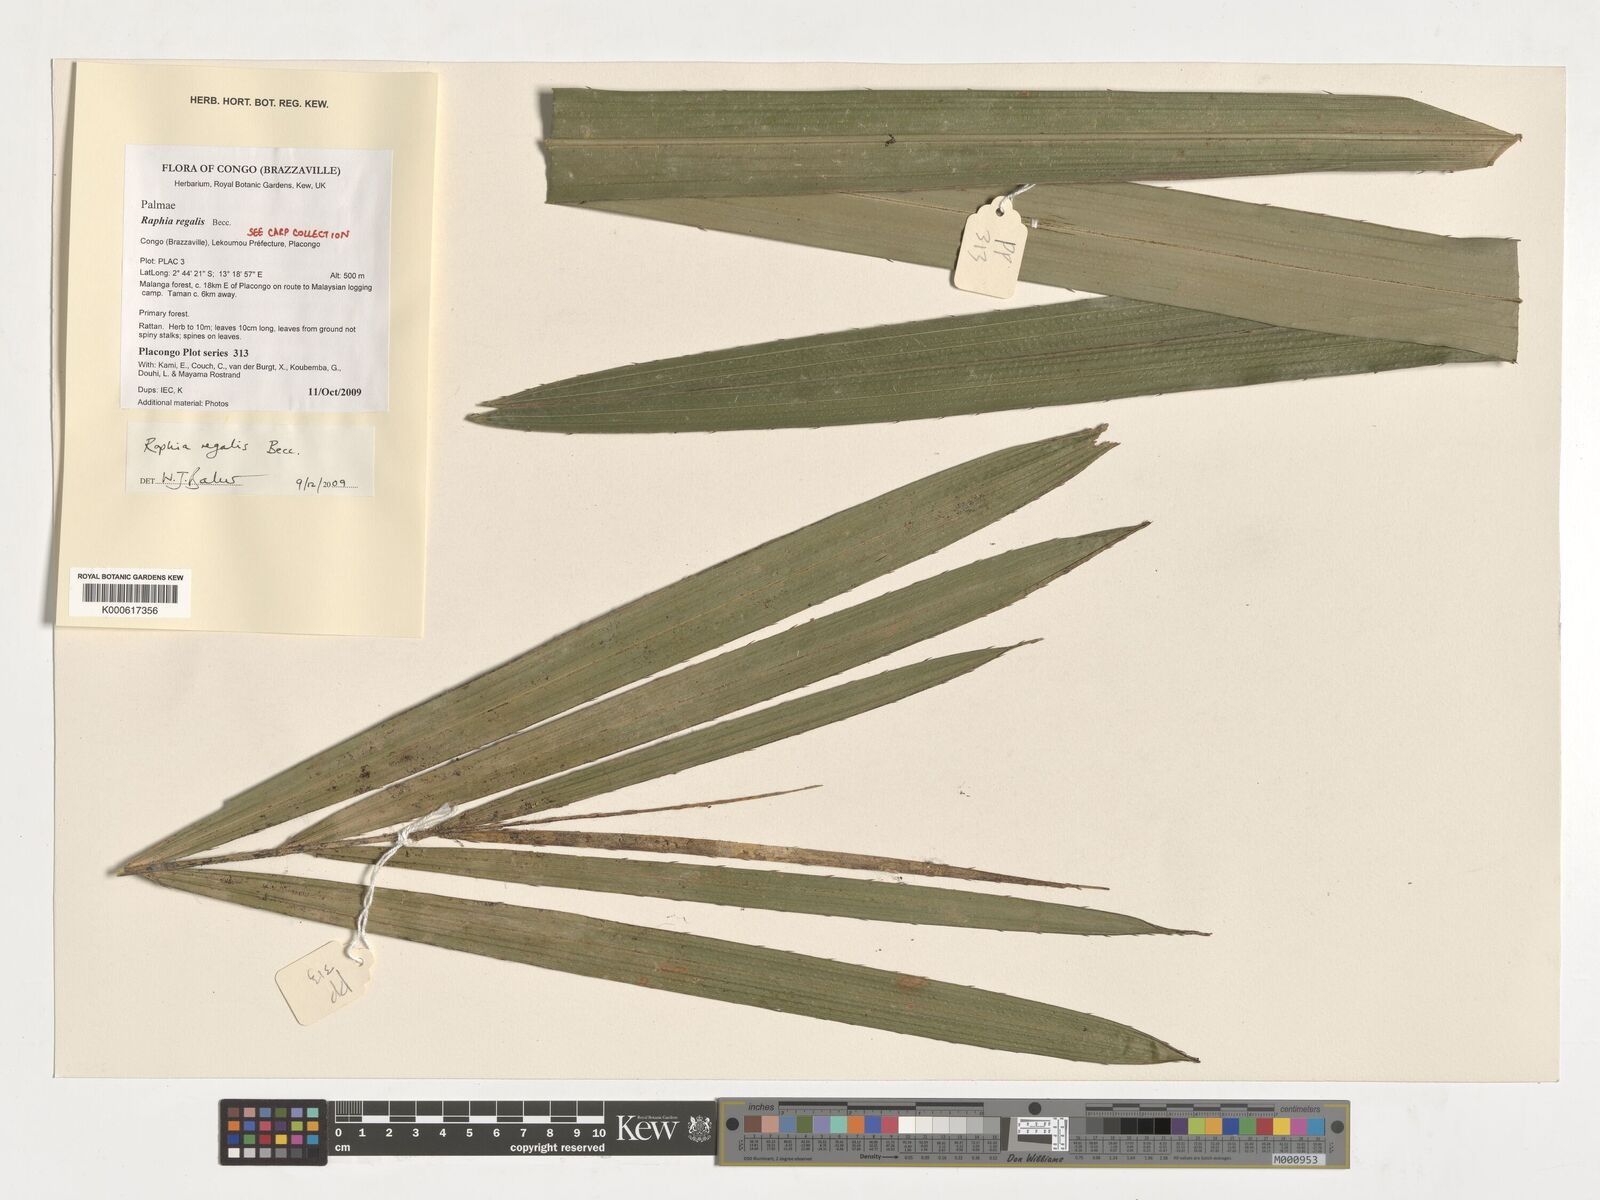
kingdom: Plantae
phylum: Tracheophyta
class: Liliopsida
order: Arecales
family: Arecaceae
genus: Raphia
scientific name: Raphia regalis
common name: Raphia palm
